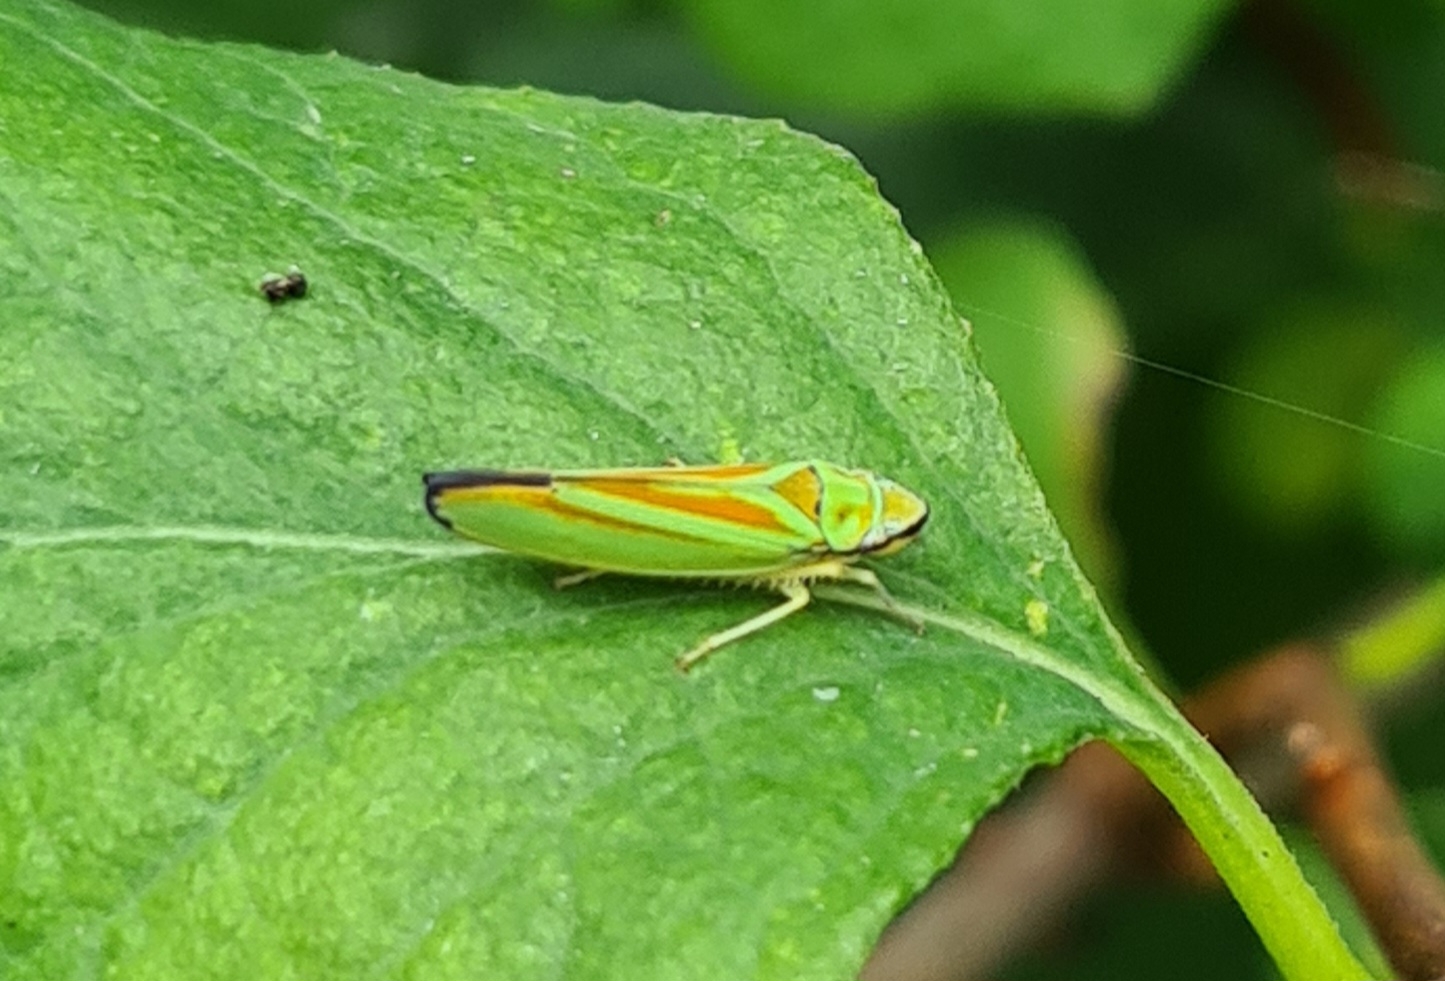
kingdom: Animalia
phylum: Arthropoda
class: Insecta
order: Hemiptera
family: Cicadellidae
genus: Graphocephala
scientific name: Graphocephala fennahi
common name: Rododendroncikade
